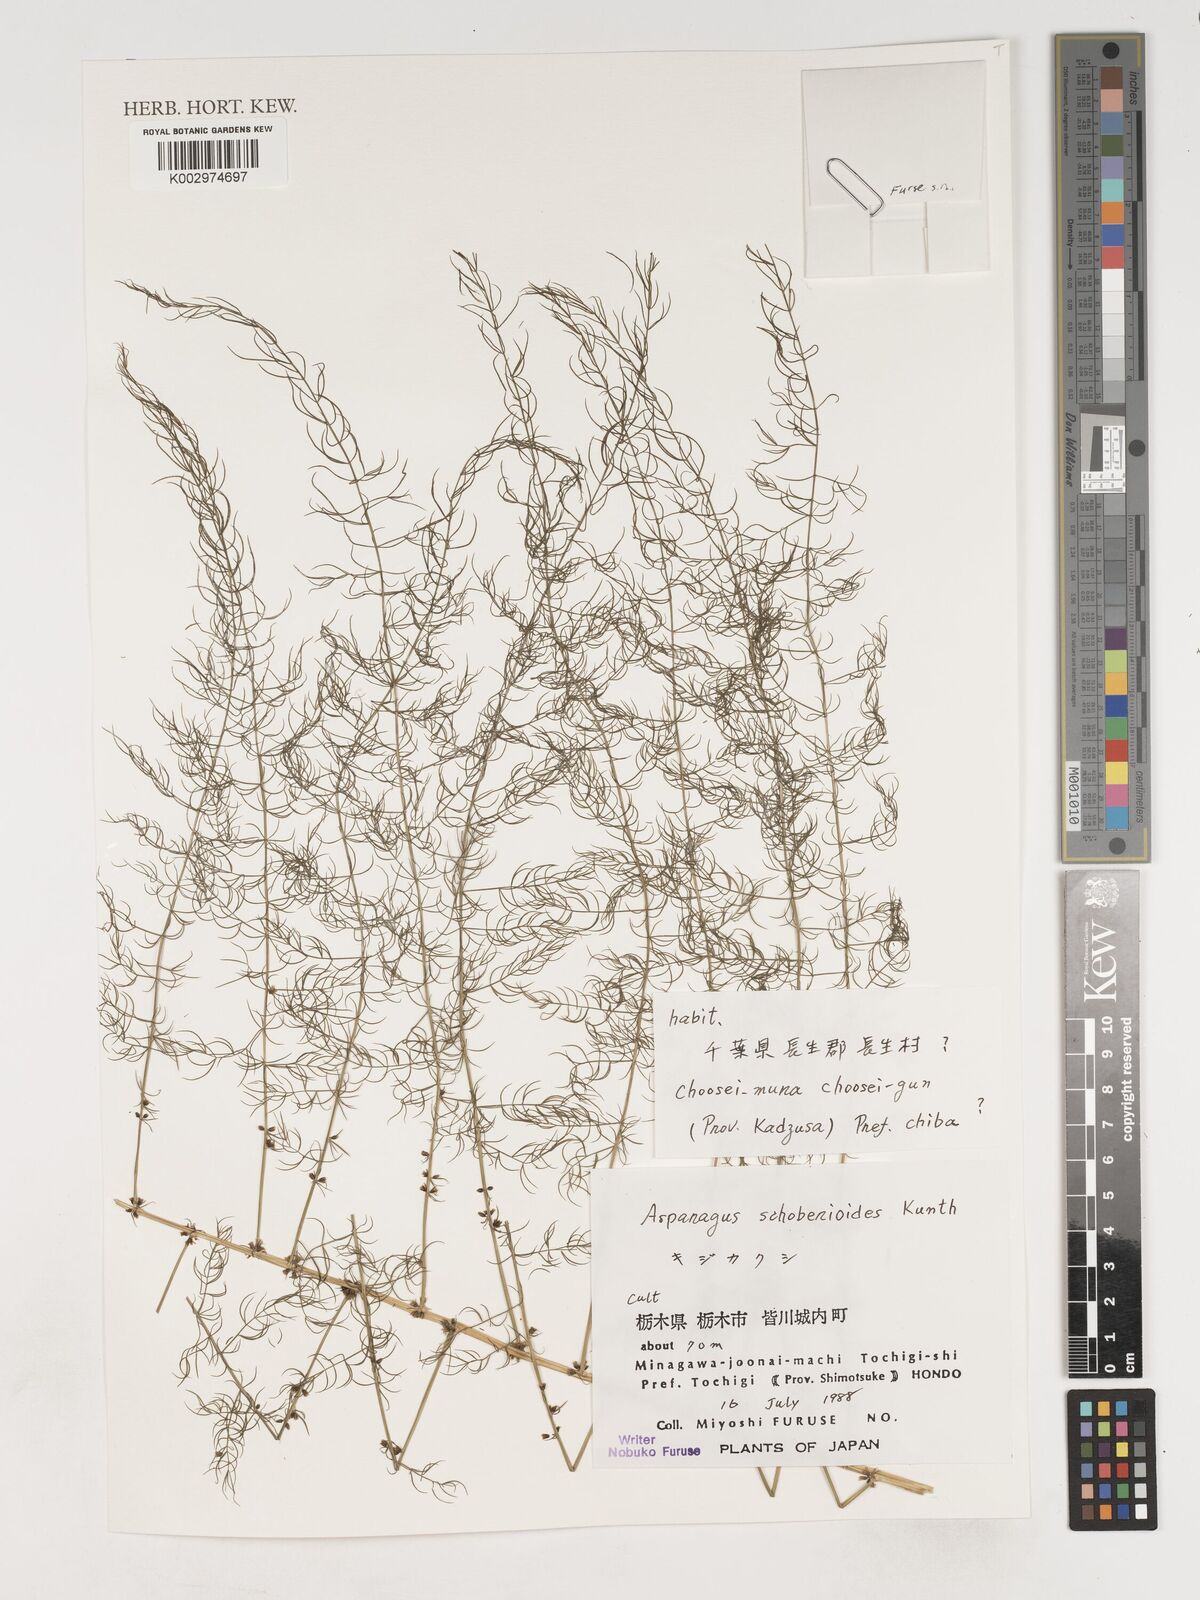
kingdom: Plantae
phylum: Tracheophyta
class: Liliopsida
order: Asparagales
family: Asparagaceae
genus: Asparagus
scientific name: Asparagus schoberioides
